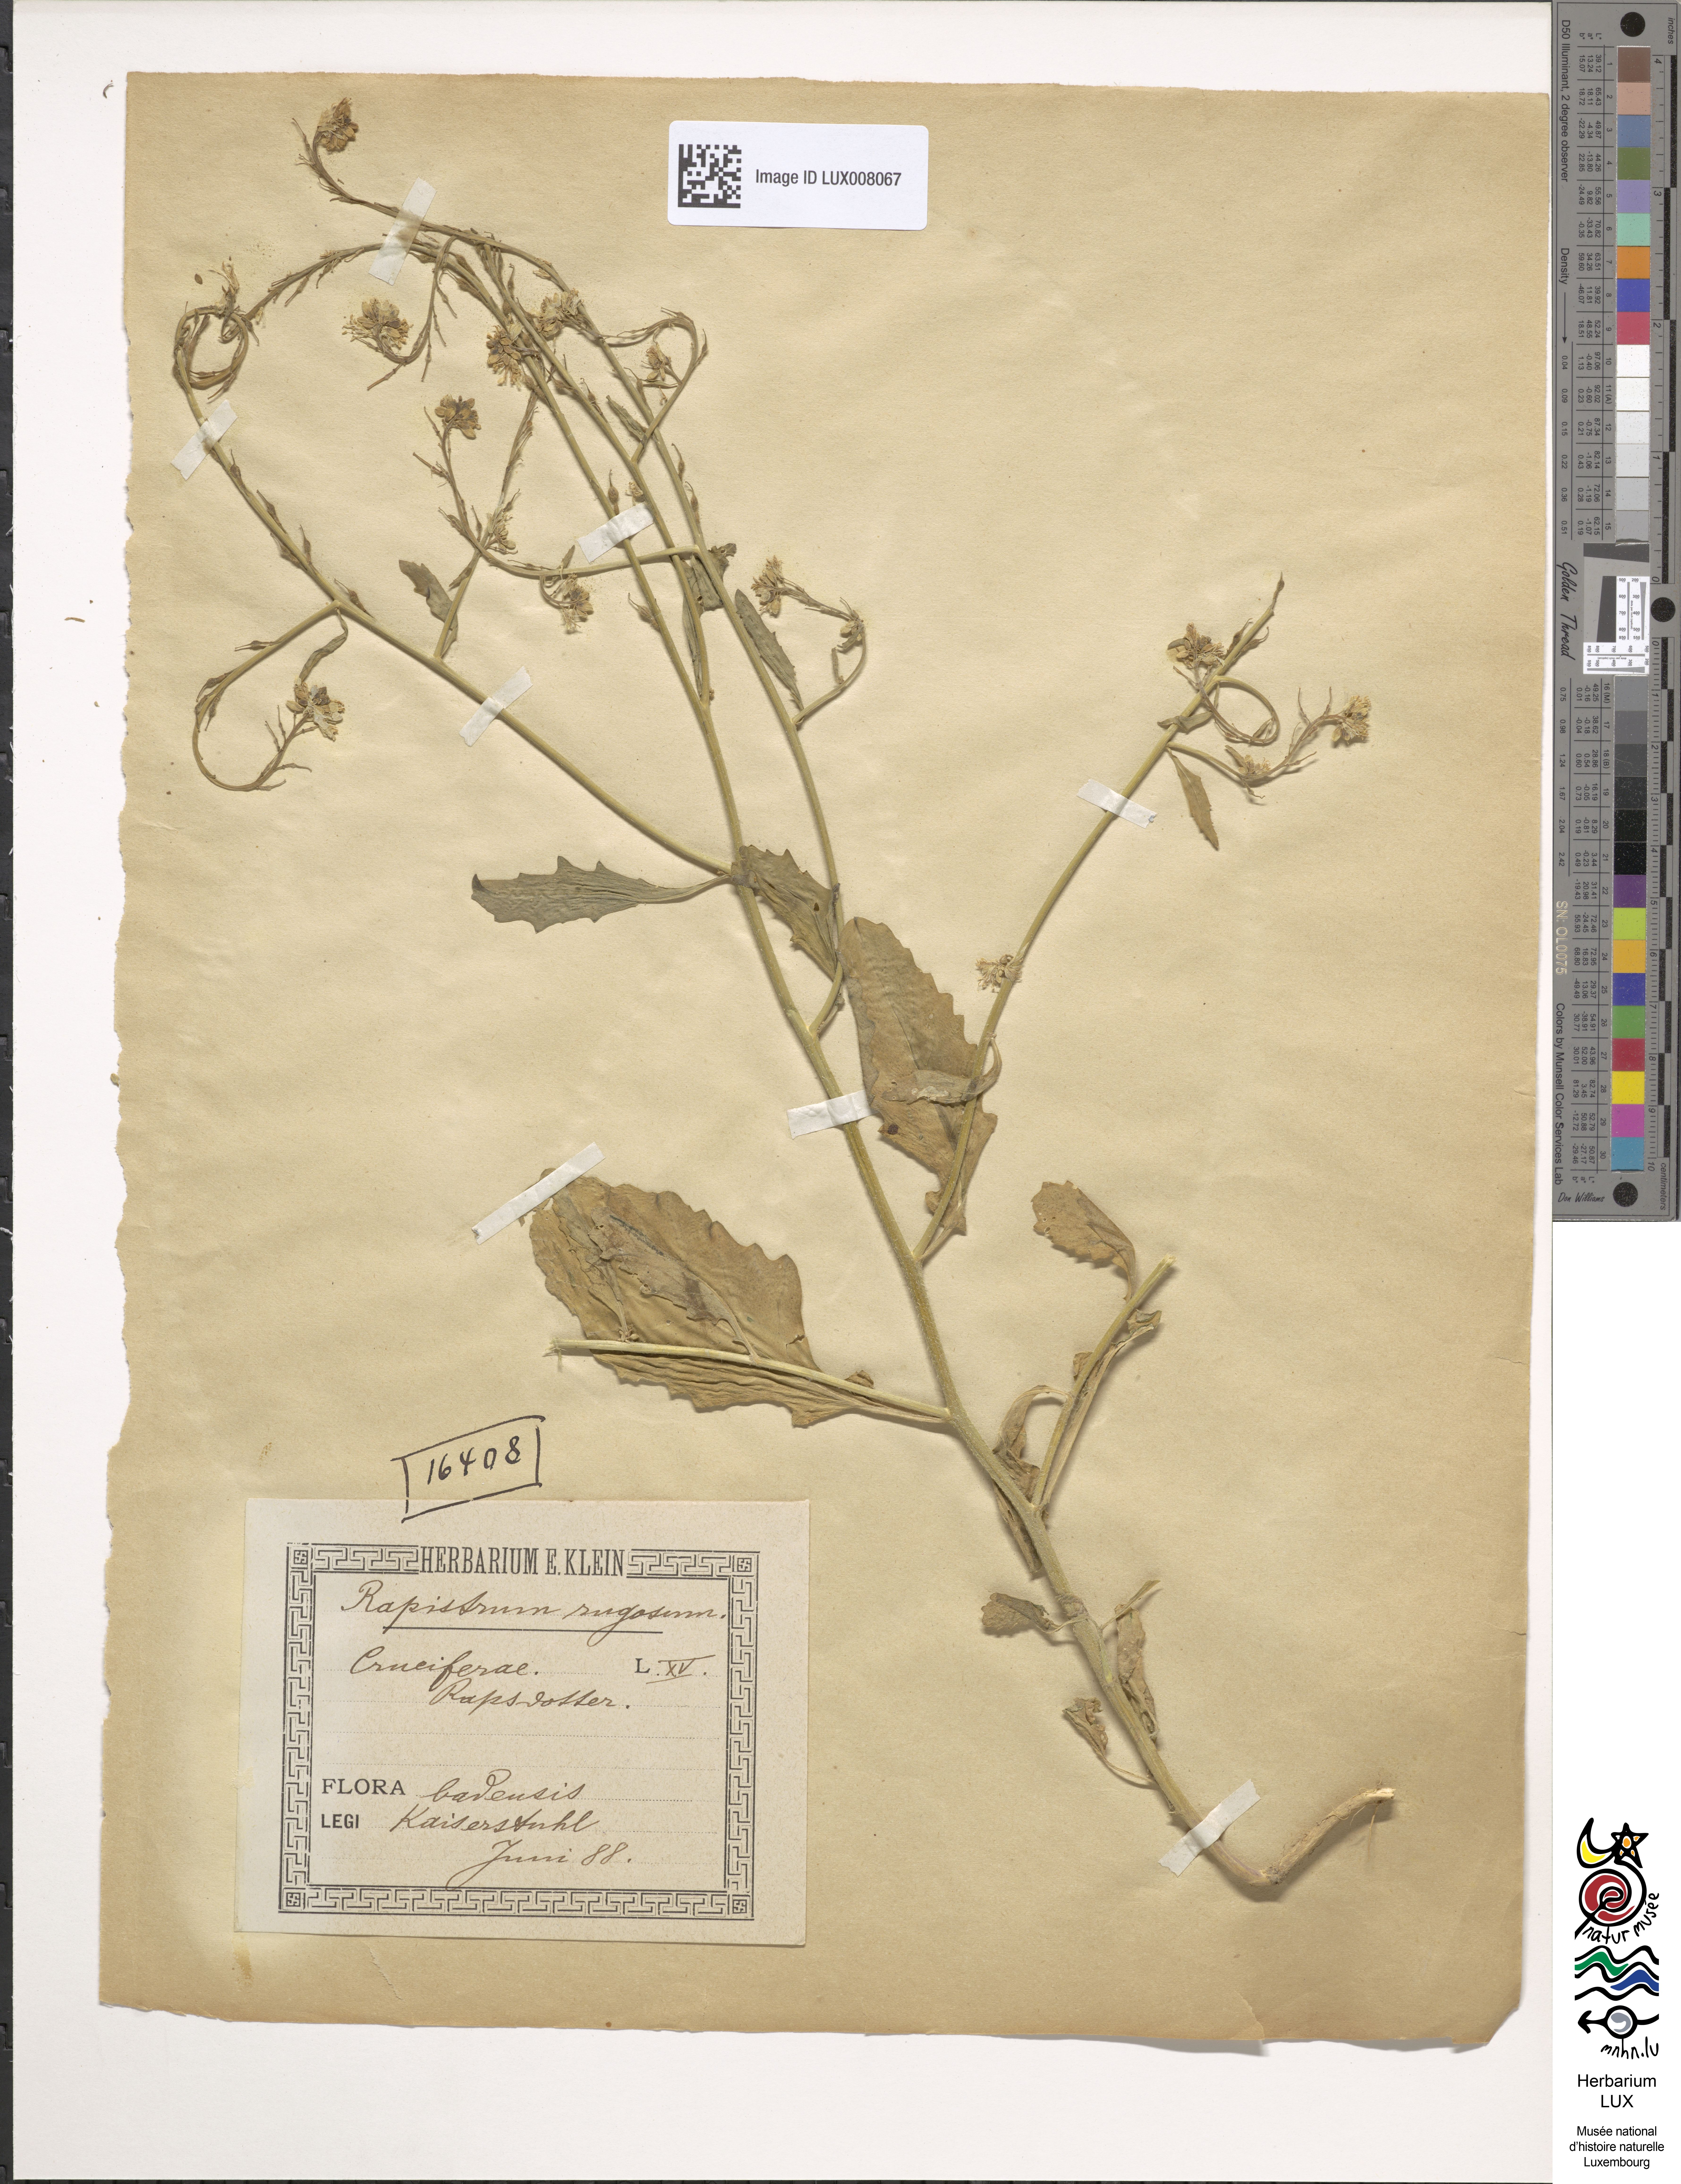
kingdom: Plantae
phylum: Tracheophyta
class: Magnoliopsida
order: Brassicales
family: Brassicaceae
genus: Rapistrum
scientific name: Rapistrum rugosum
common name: Annual bastardcabbage
